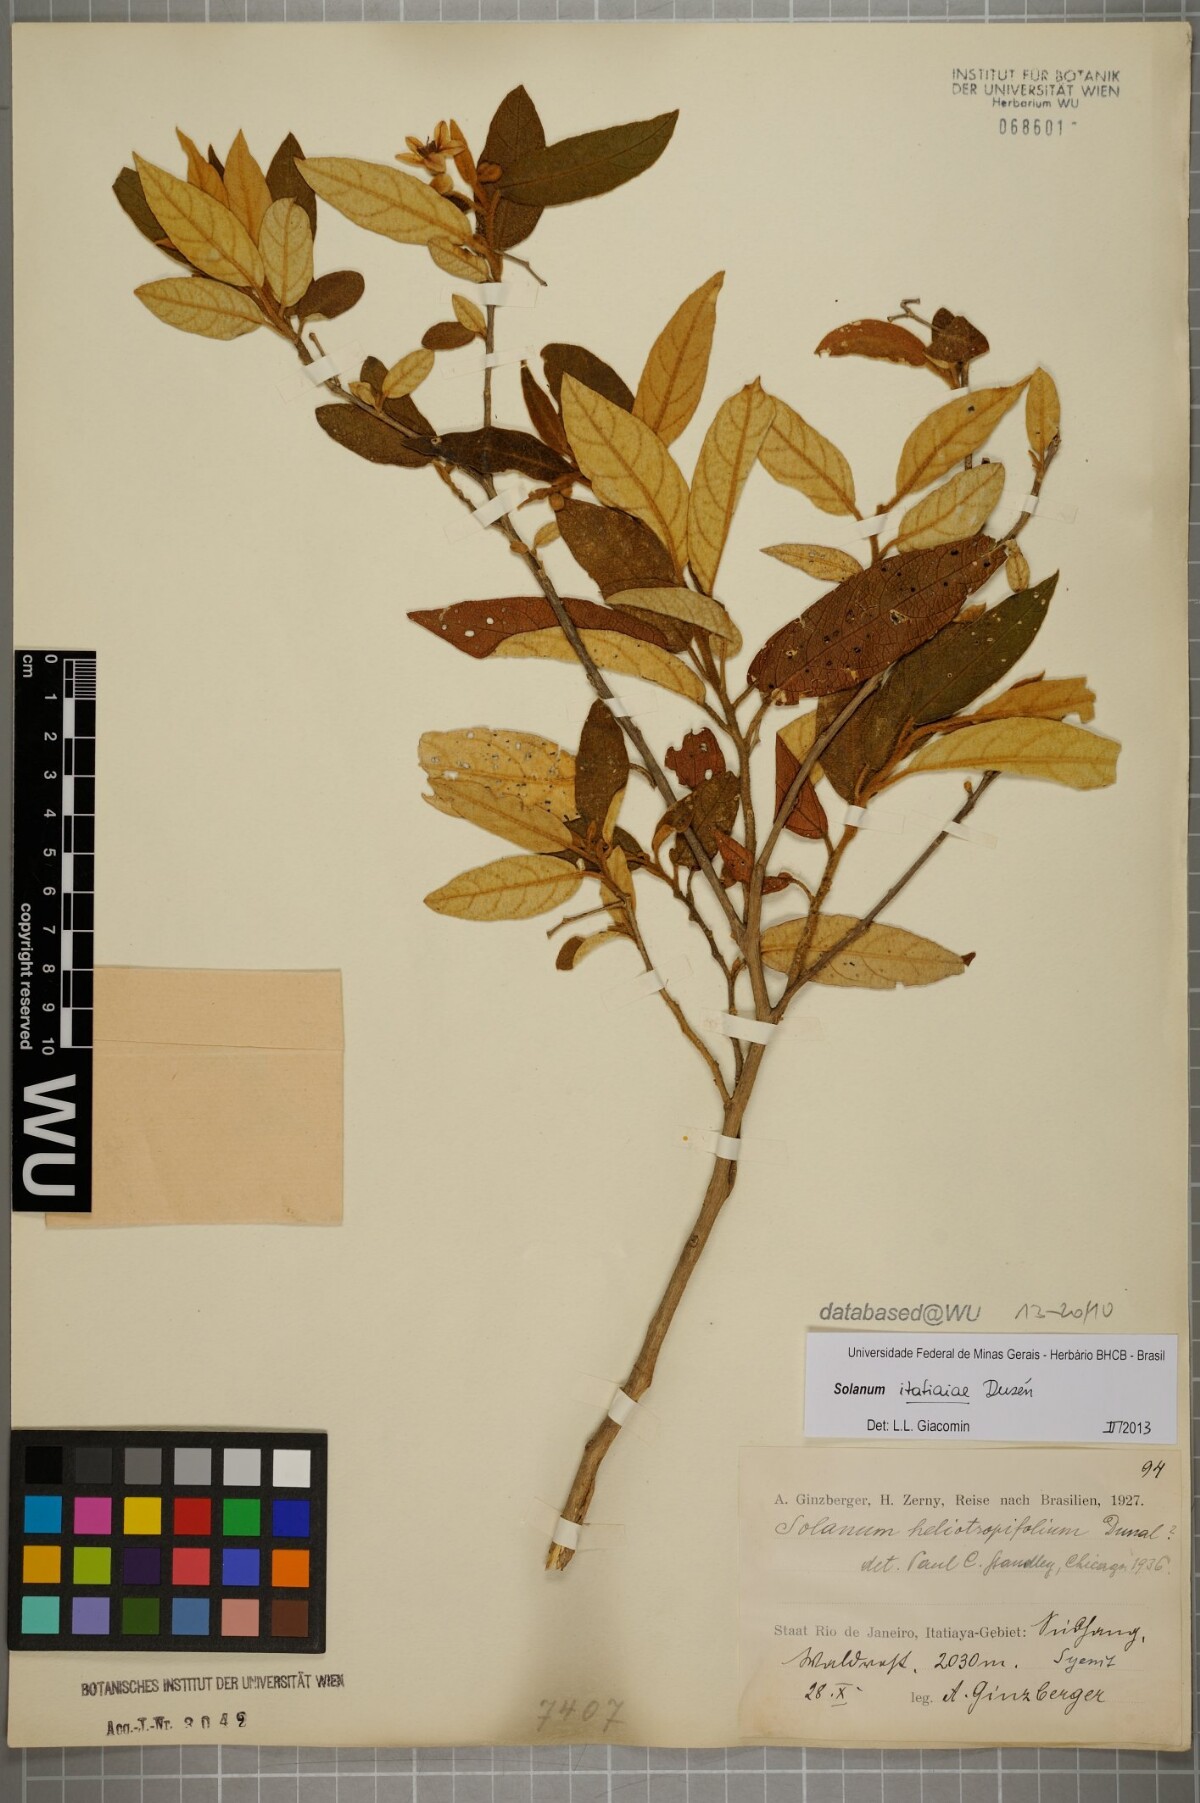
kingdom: Plantae
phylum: Tracheophyta
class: Magnoliopsida
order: Solanales
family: Solanaceae
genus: Solanum
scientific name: Solanum itatiaiae
